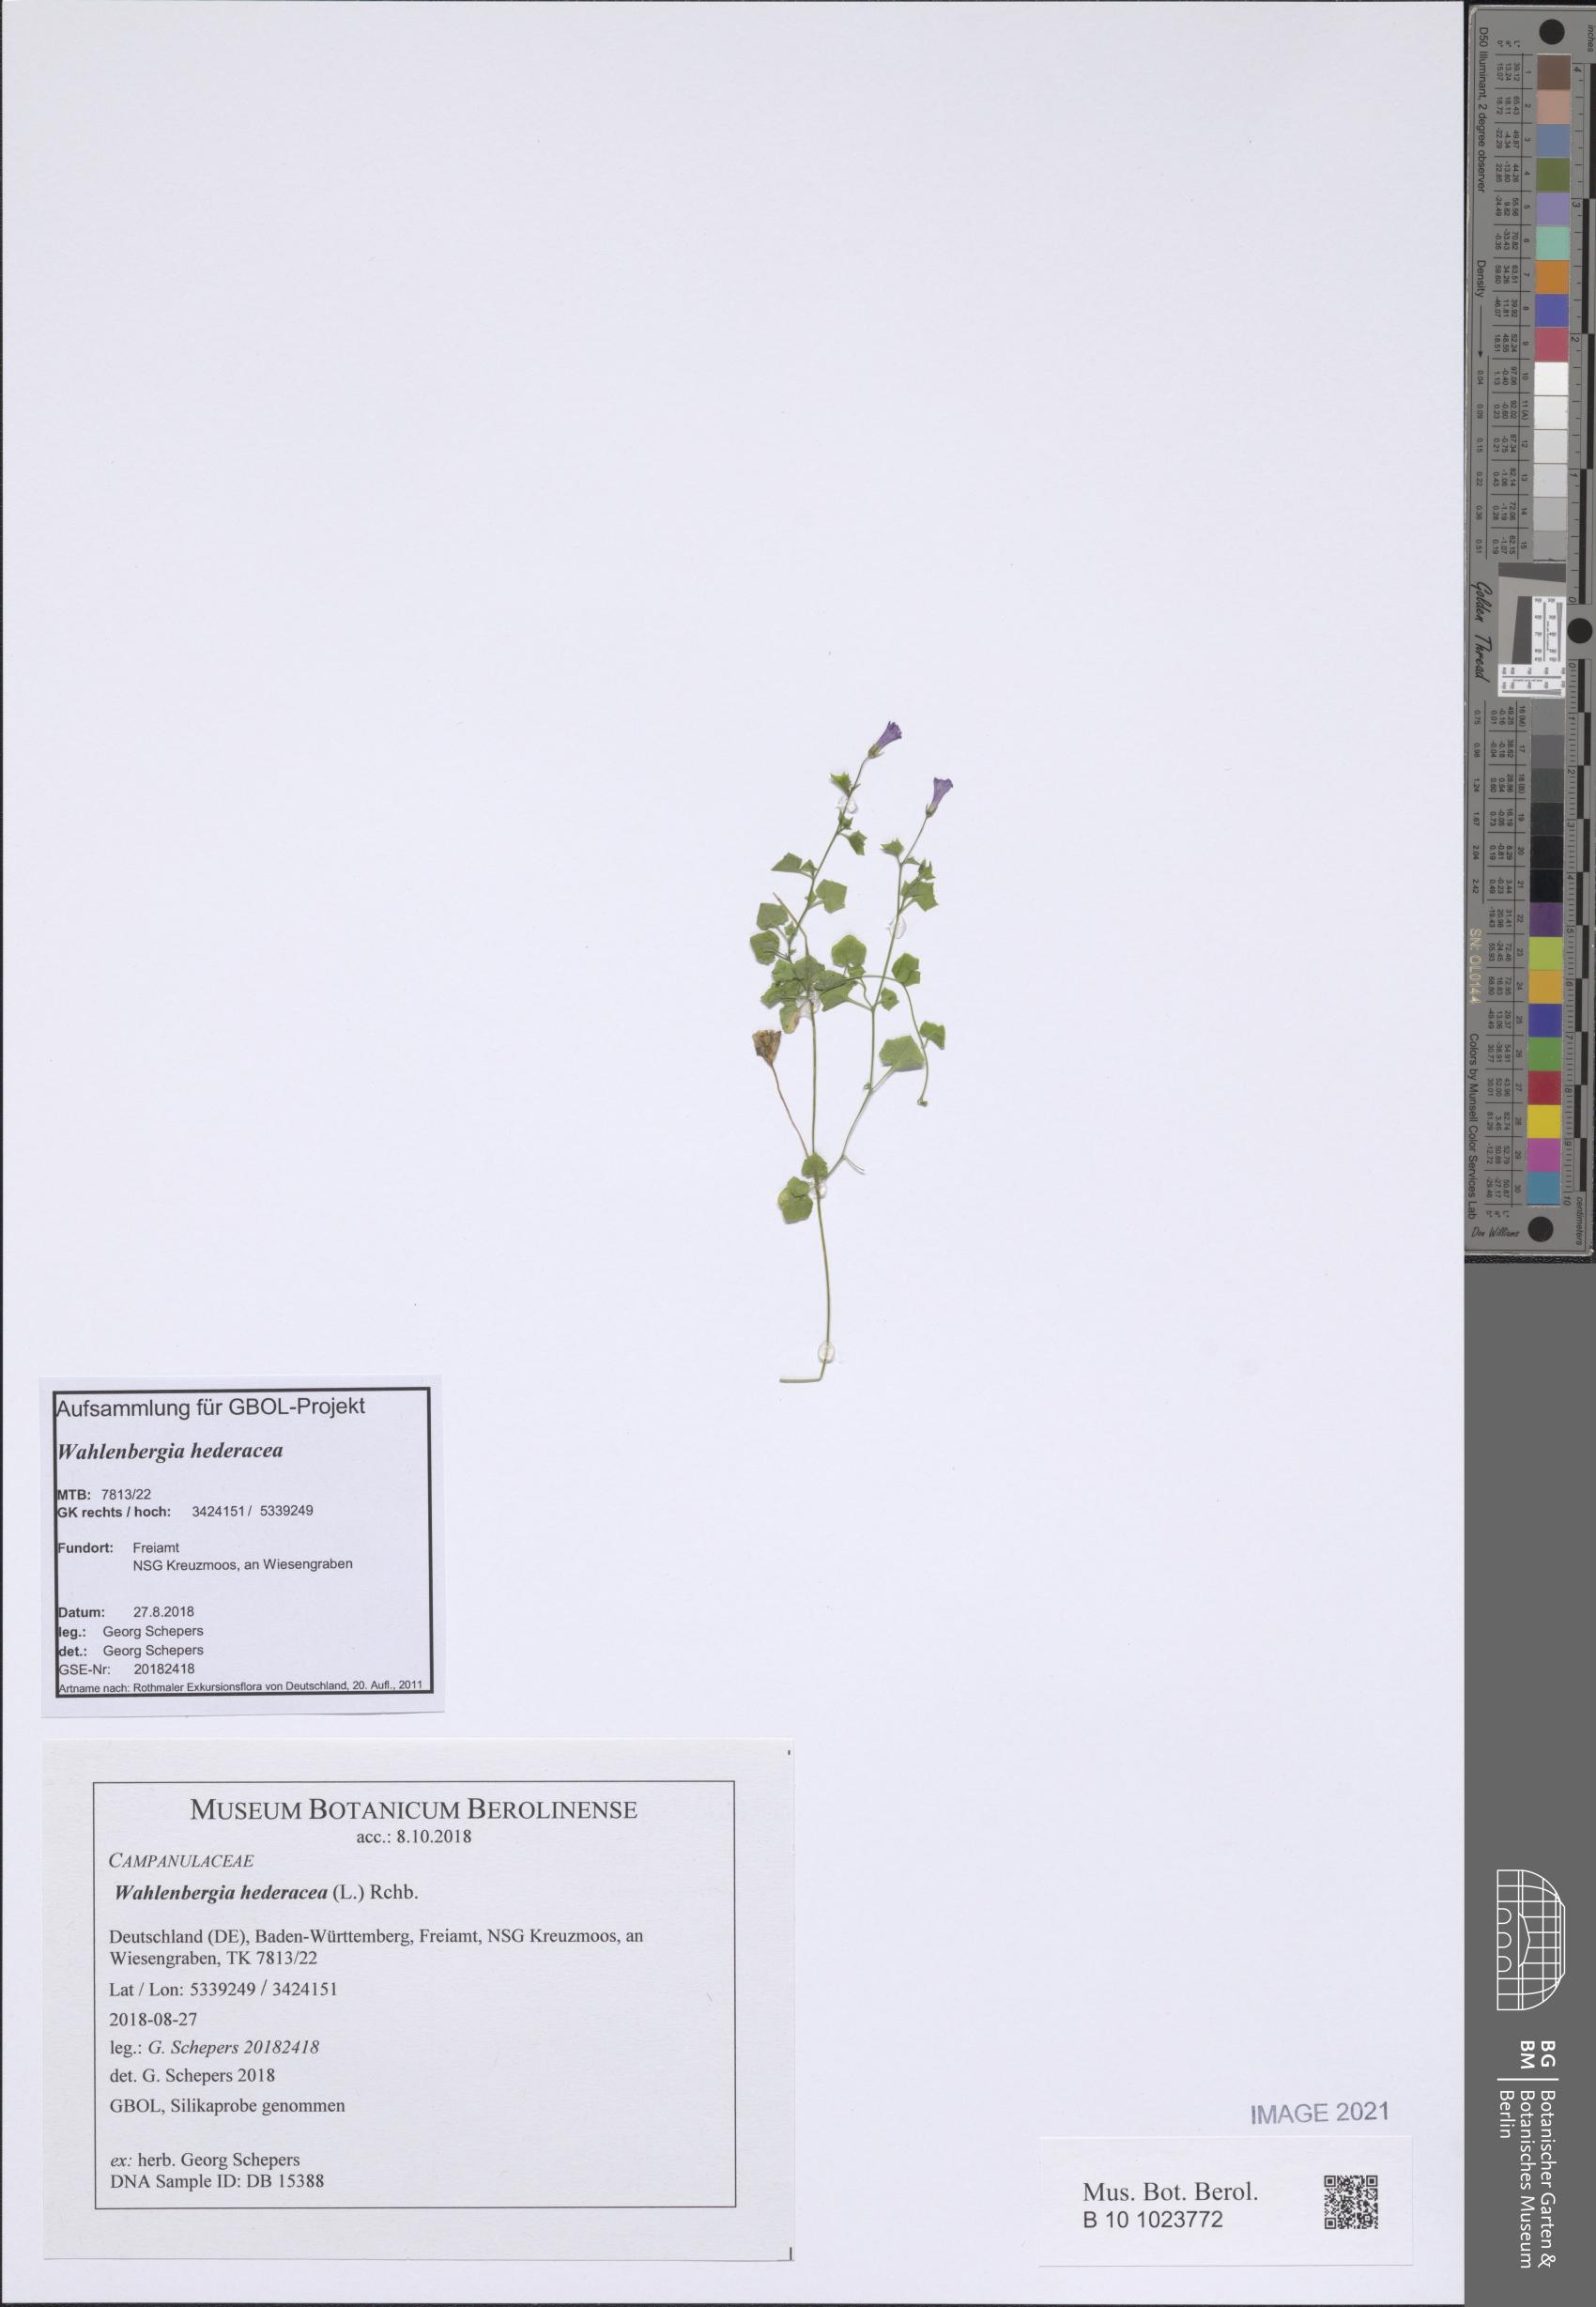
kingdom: Plantae
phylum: Tracheophyta
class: Magnoliopsida
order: Asterales
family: Campanulaceae
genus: Hesperocodon
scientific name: Hesperocodon hederaceus
